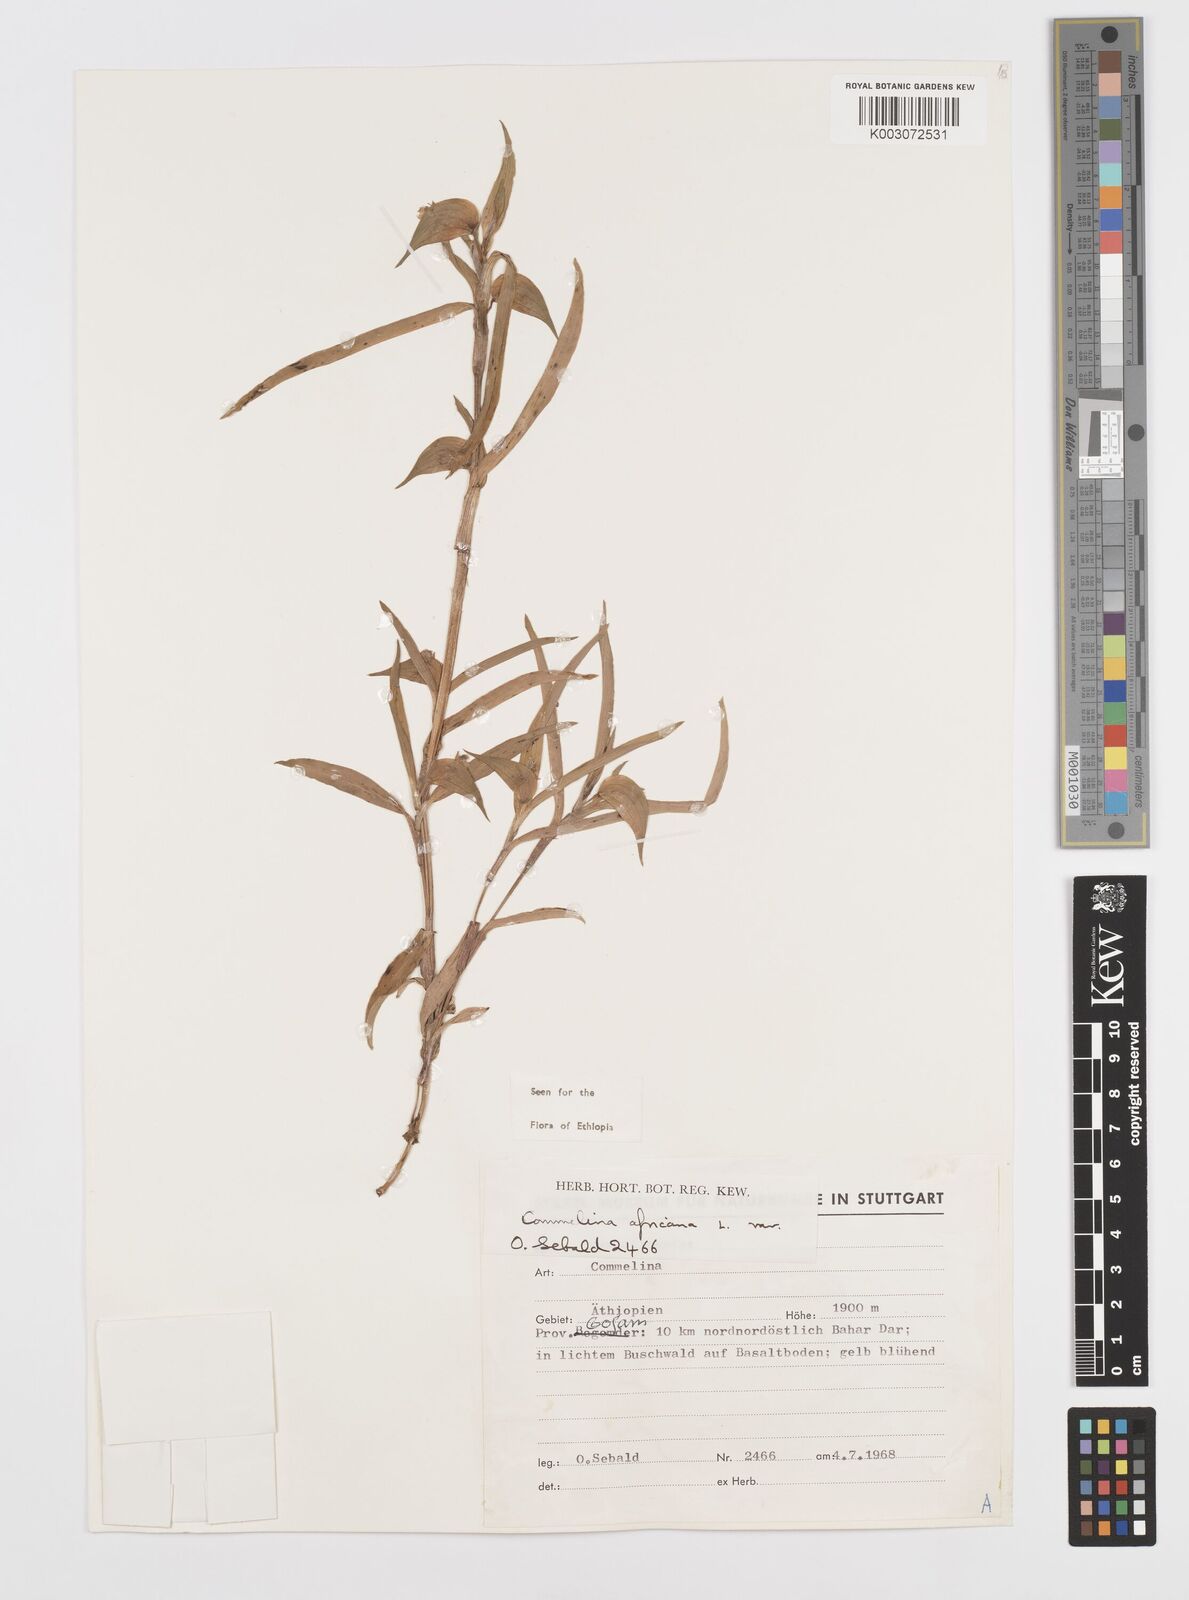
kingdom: Plantae
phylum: Tracheophyta
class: Liliopsida
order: Commelinales
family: Commelinaceae
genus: Commelina
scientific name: Commelina africana
